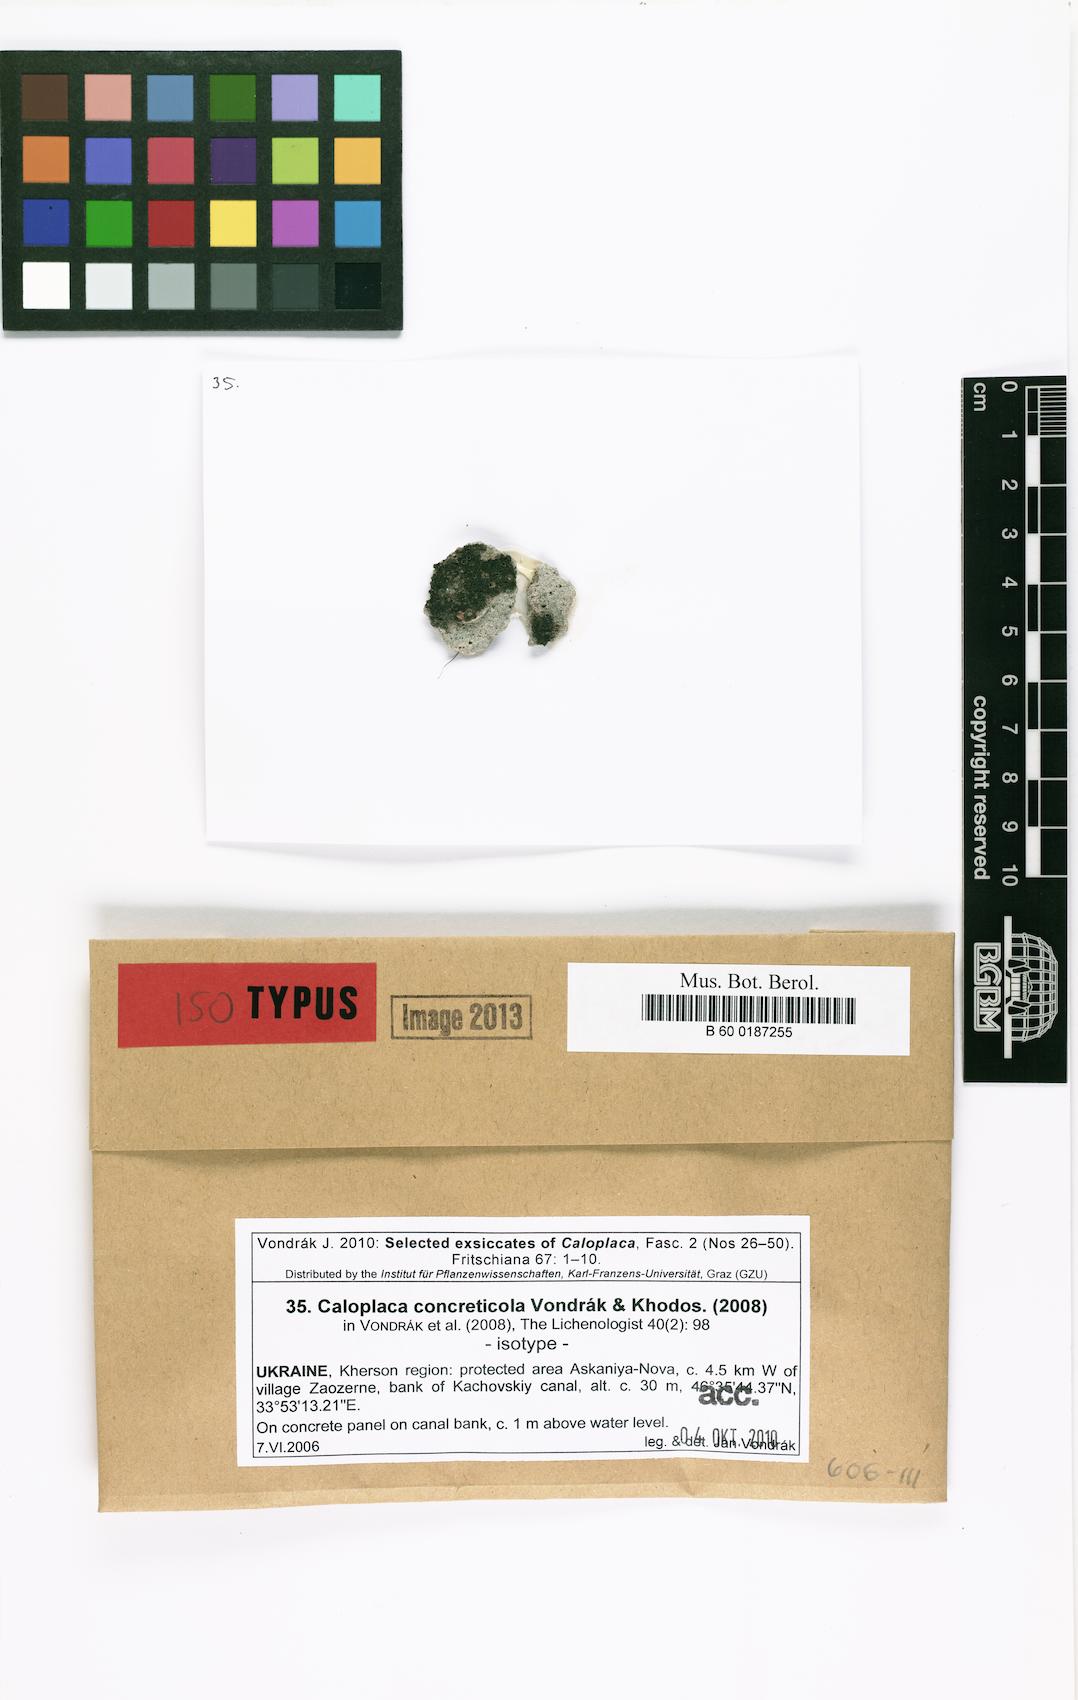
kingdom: Fungi
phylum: Ascomycota
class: Lecanoromycetes
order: Teloschistales
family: Teloschistaceae
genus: Pyrenodesmia
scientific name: Pyrenodesmia concreticola
